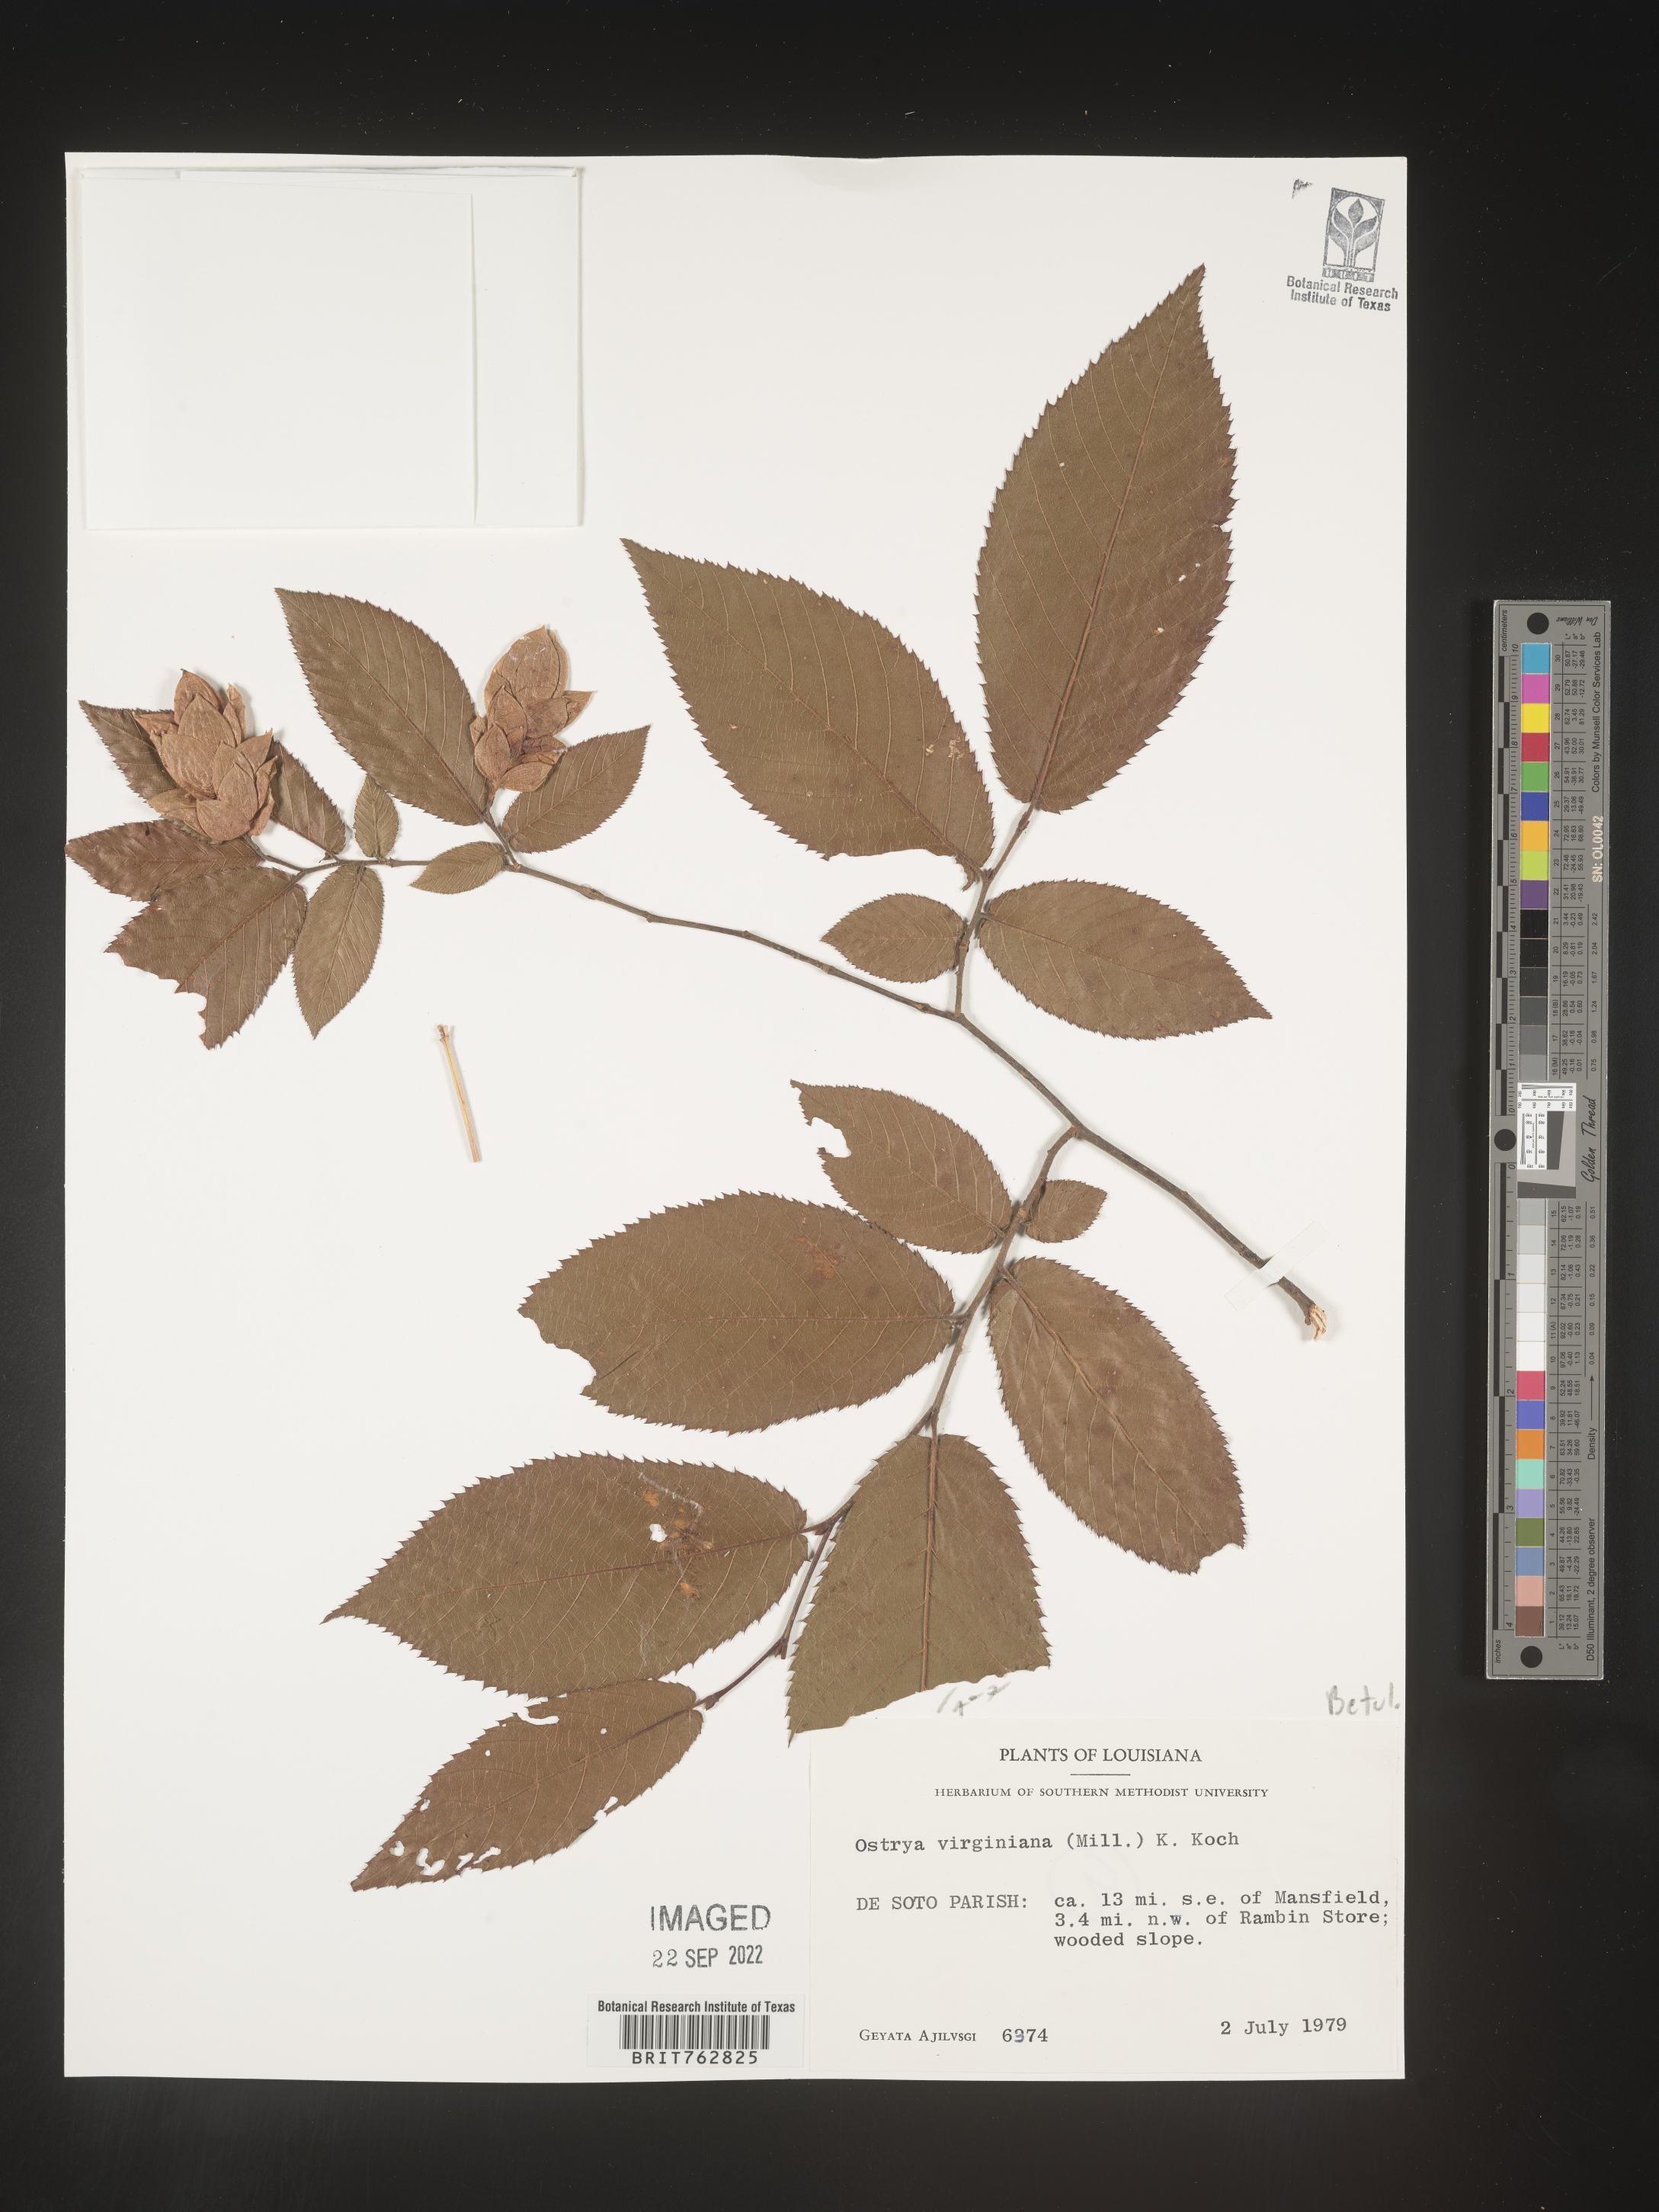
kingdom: Plantae
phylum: Tracheophyta
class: Magnoliopsida
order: Fagales
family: Betulaceae
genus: Ostrya
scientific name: Ostrya virginiana
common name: Ironwood
